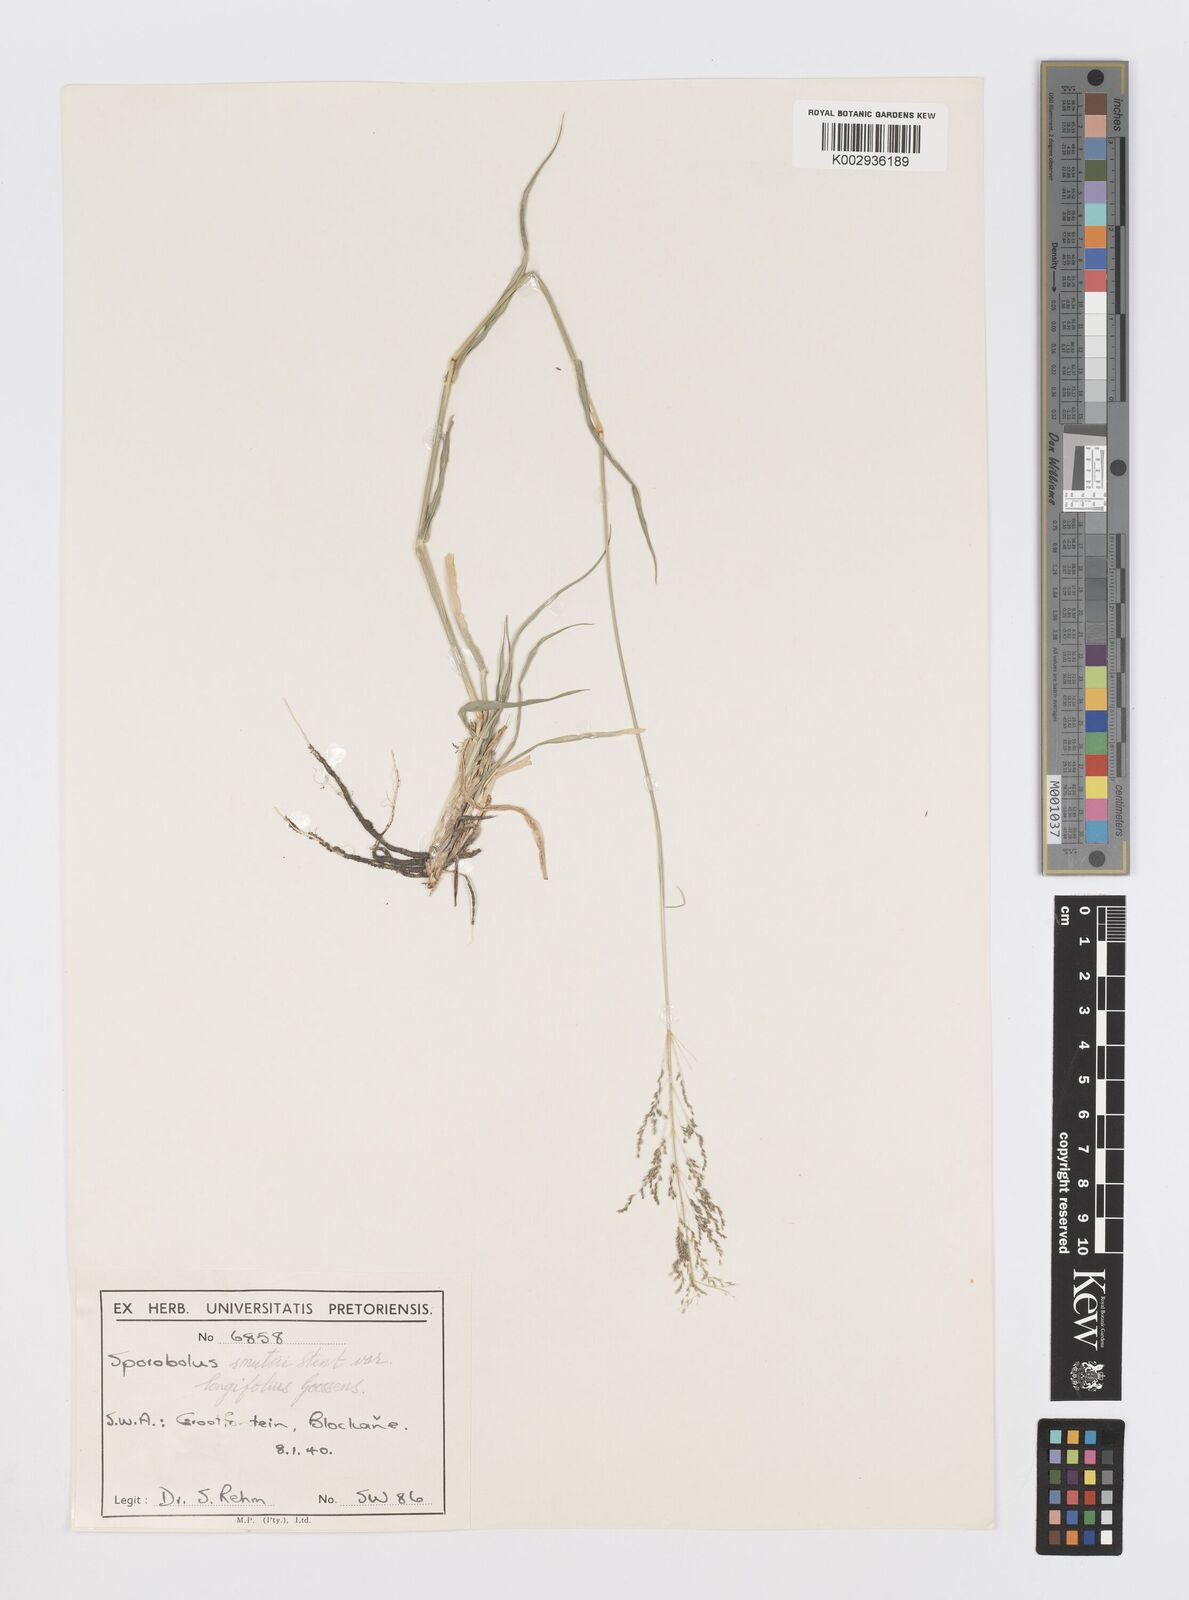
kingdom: Plantae
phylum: Tracheophyta
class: Liliopsida
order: Poales
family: Poaceae
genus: Sporobolus
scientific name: Sporobolus ioclados
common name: Pan dropseed
